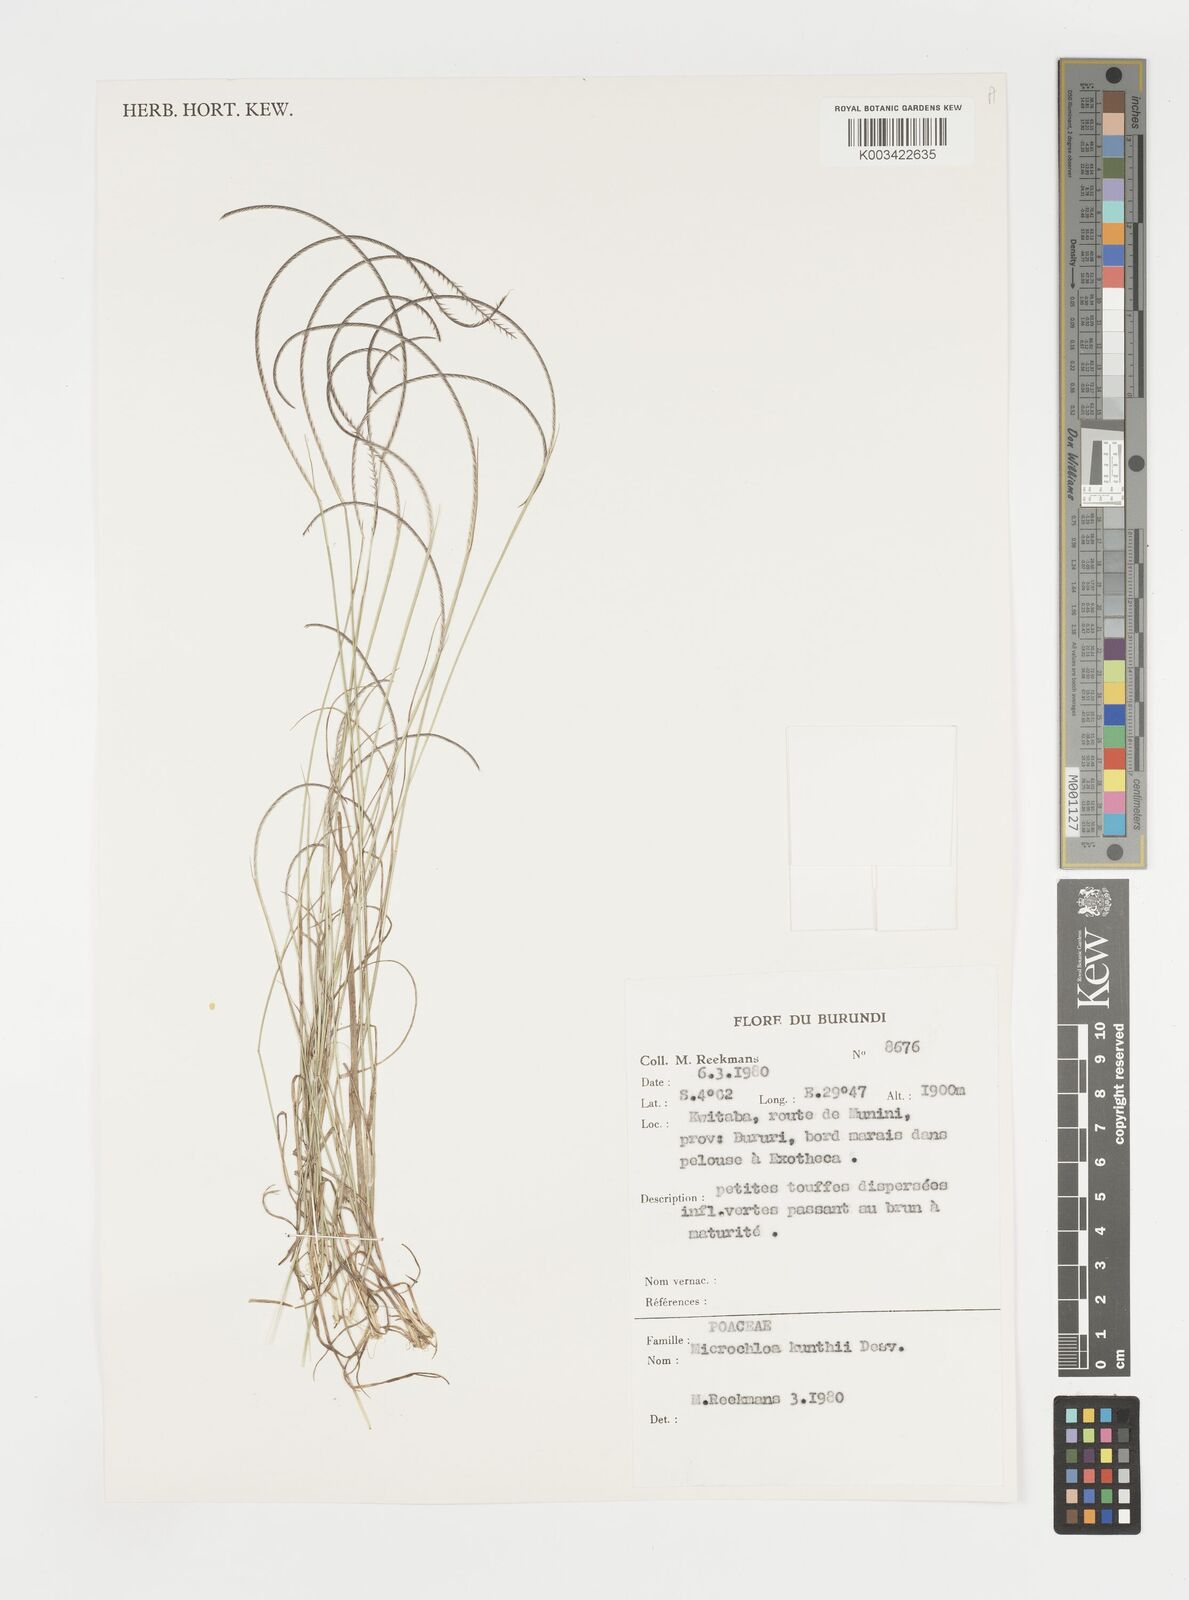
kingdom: Plantae
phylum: Tracheophyta
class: Liliopsida
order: Poales
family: Poaceae
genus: Microchloa
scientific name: Microchloa kunthii
